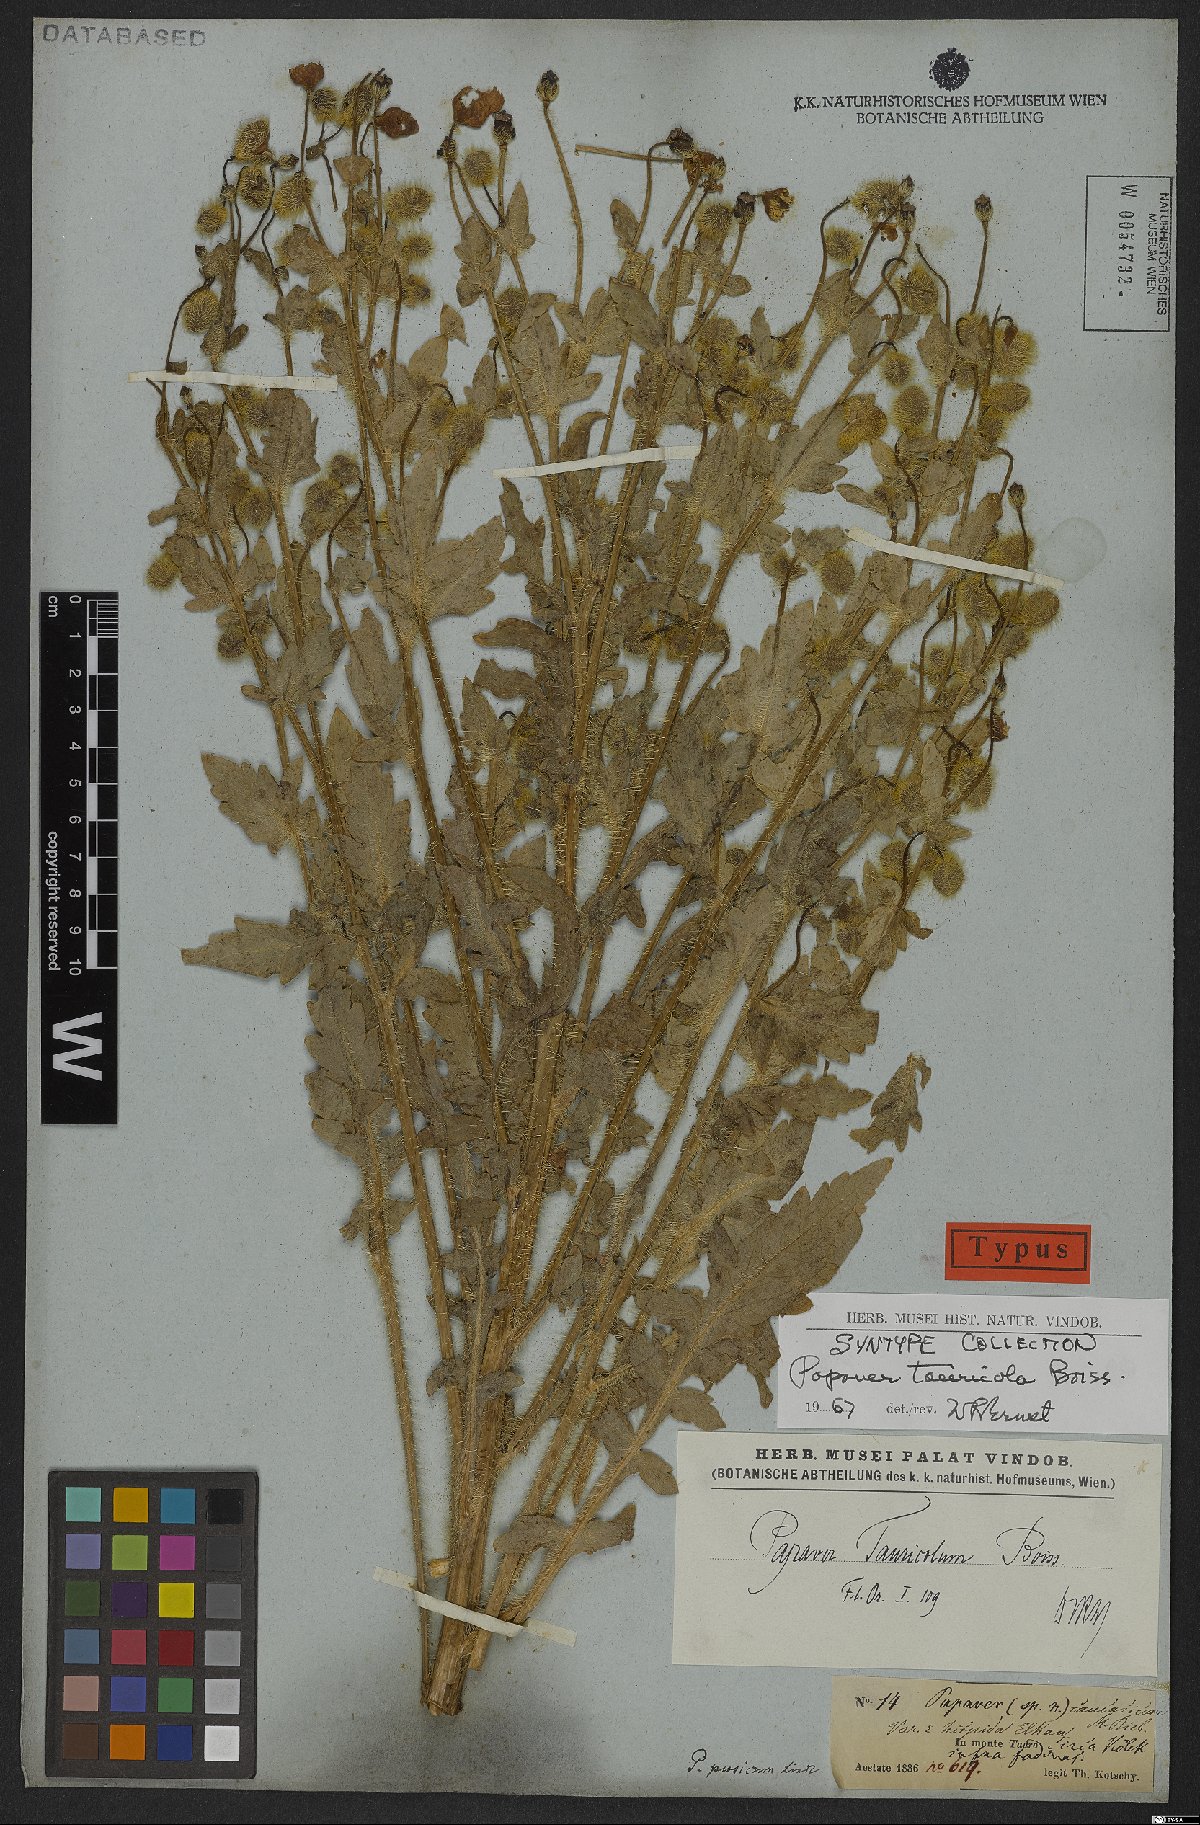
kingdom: Plantae
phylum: Tracheophyta
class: Magnoliopsida
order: Ranunculales
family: Papaveraceae
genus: Papaver
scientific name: Papaver persicum
